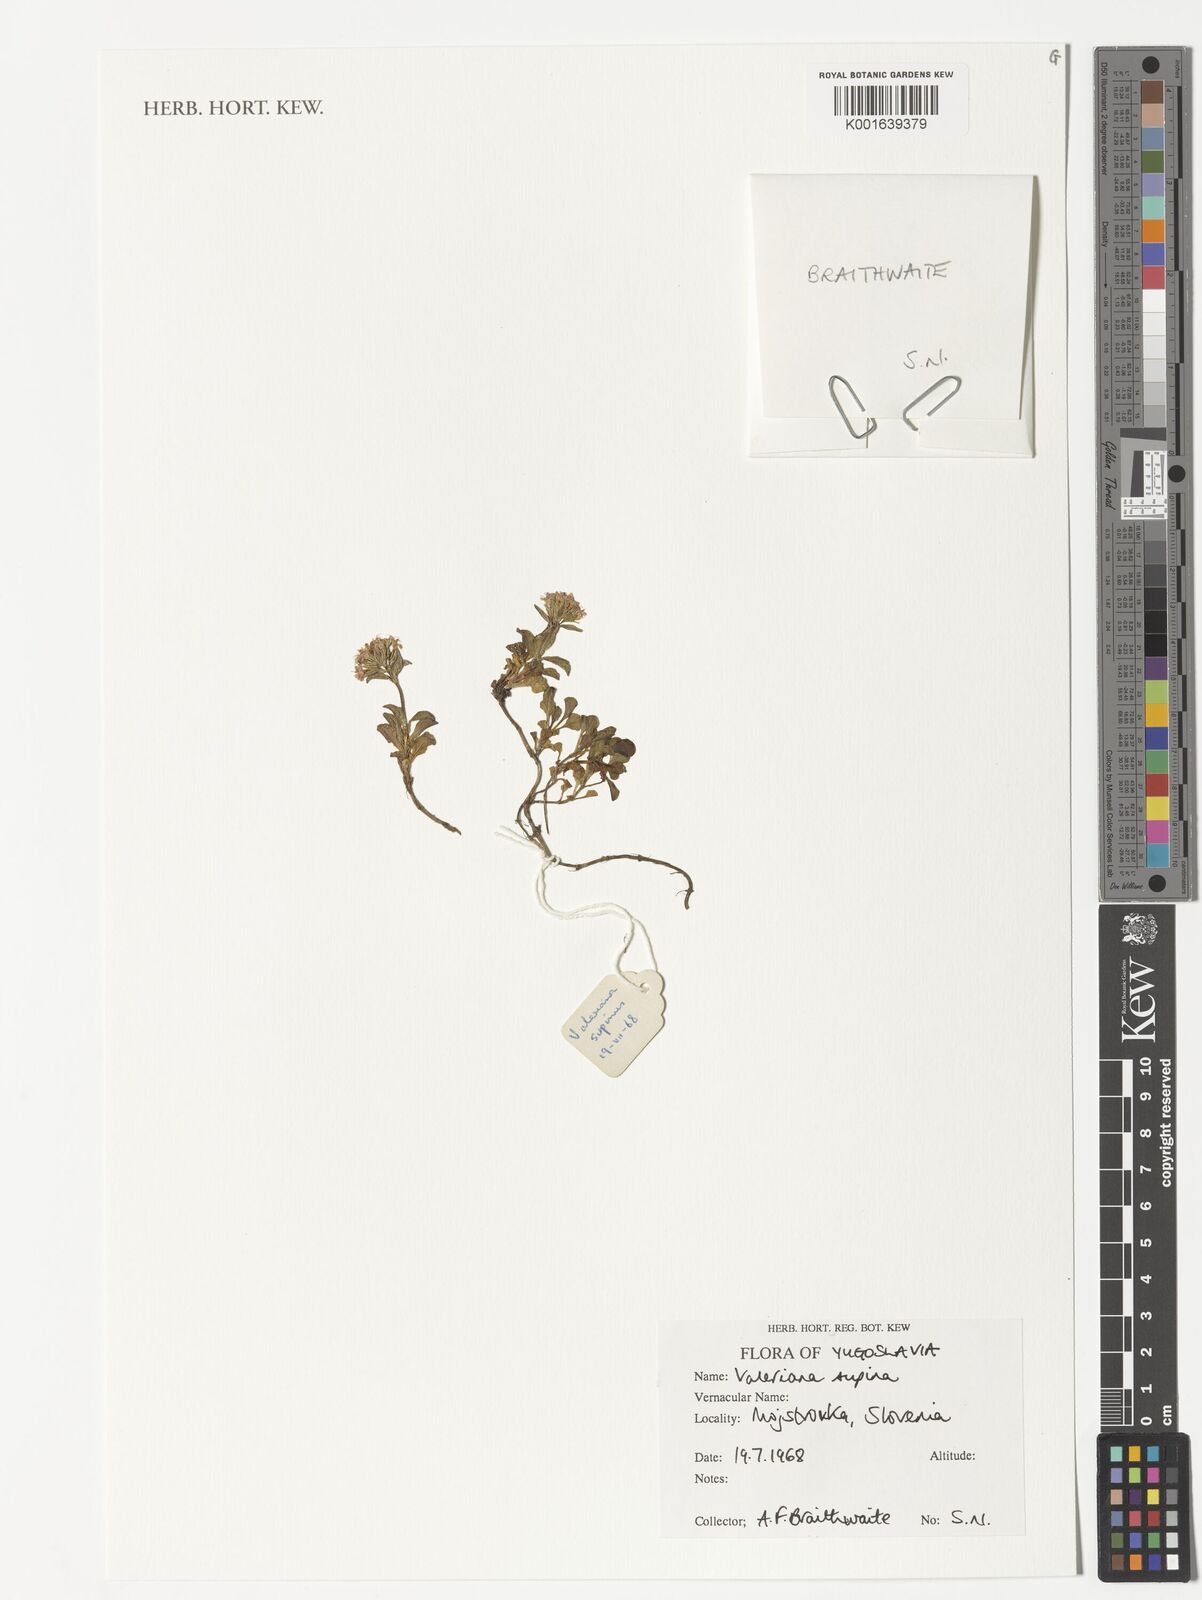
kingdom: Plantae
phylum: Tracheophyta
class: Magnoliopsida
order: Dipsacales
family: Caprifoliaceae
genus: Valeriana
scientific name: Valeriana supina
